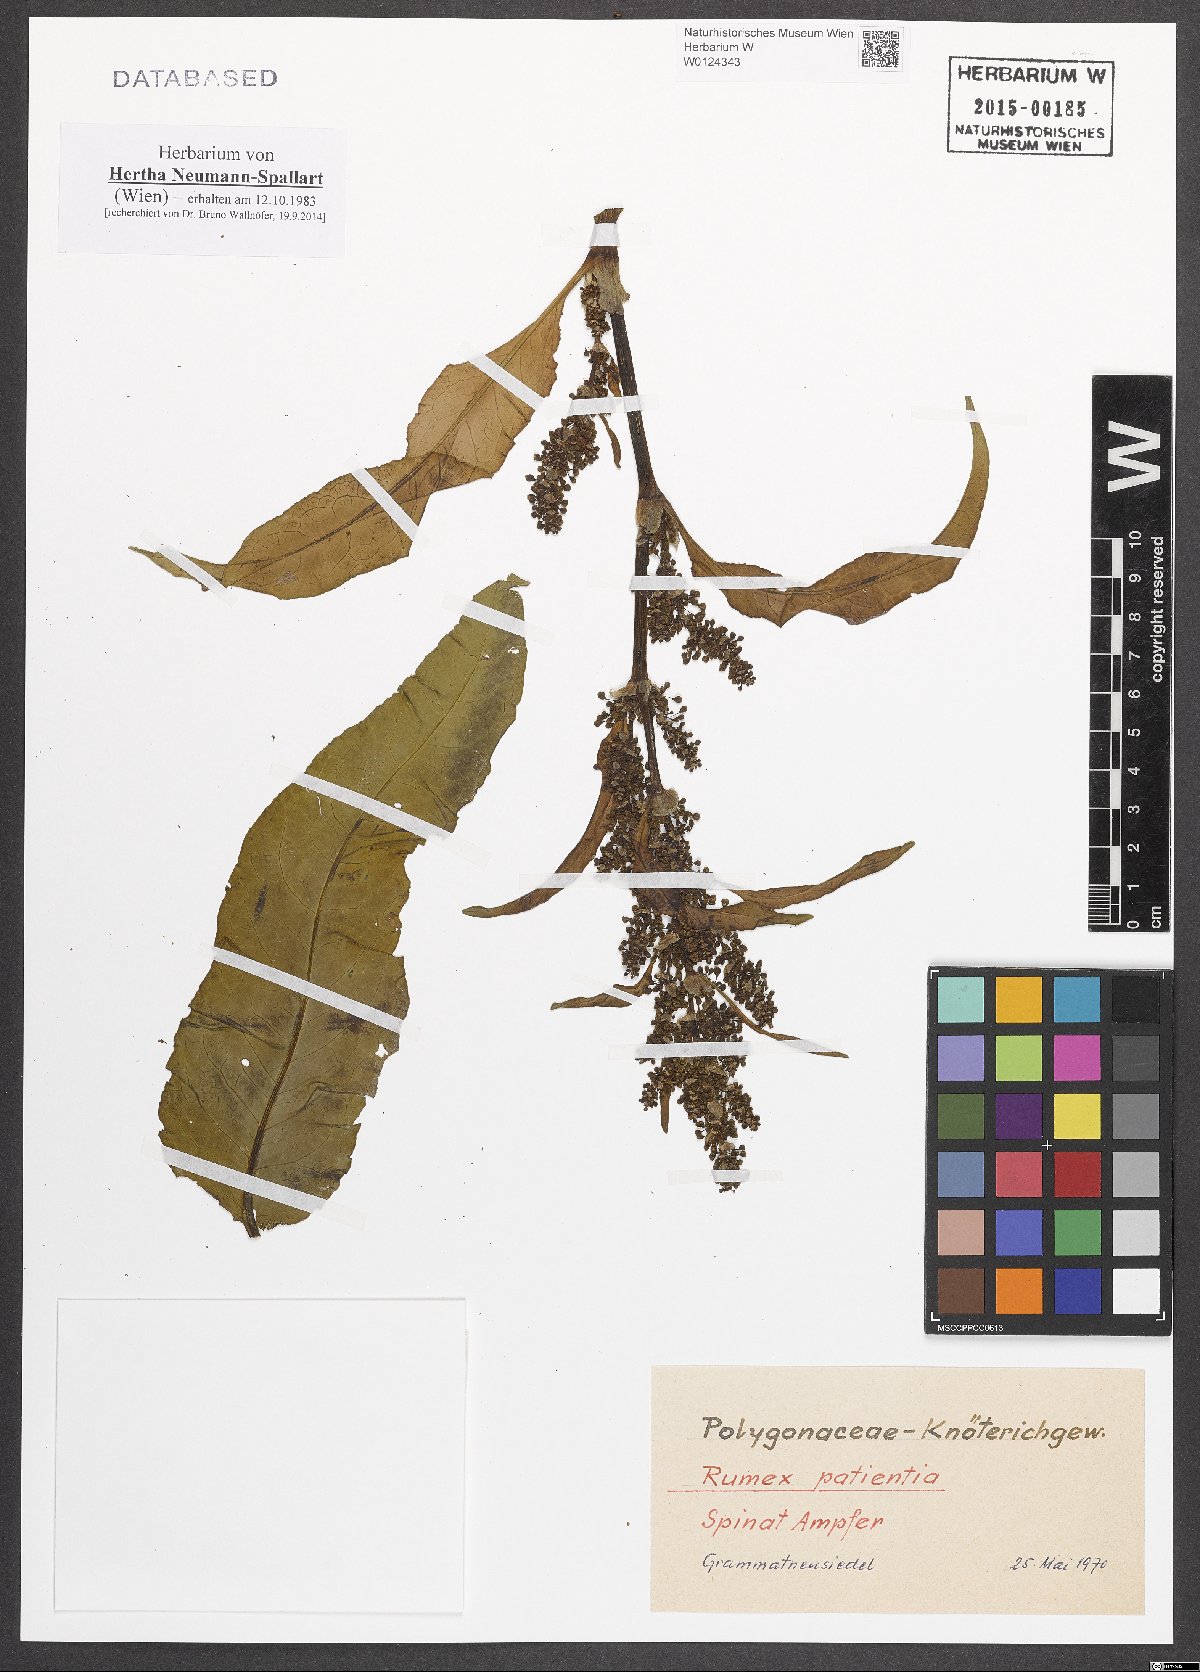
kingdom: Plantae
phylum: Tracheophyta
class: Magnoliopsida
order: Caryophyllales
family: Polygonaceae
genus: Rumex
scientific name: Rumex patientia
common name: Patience dock
